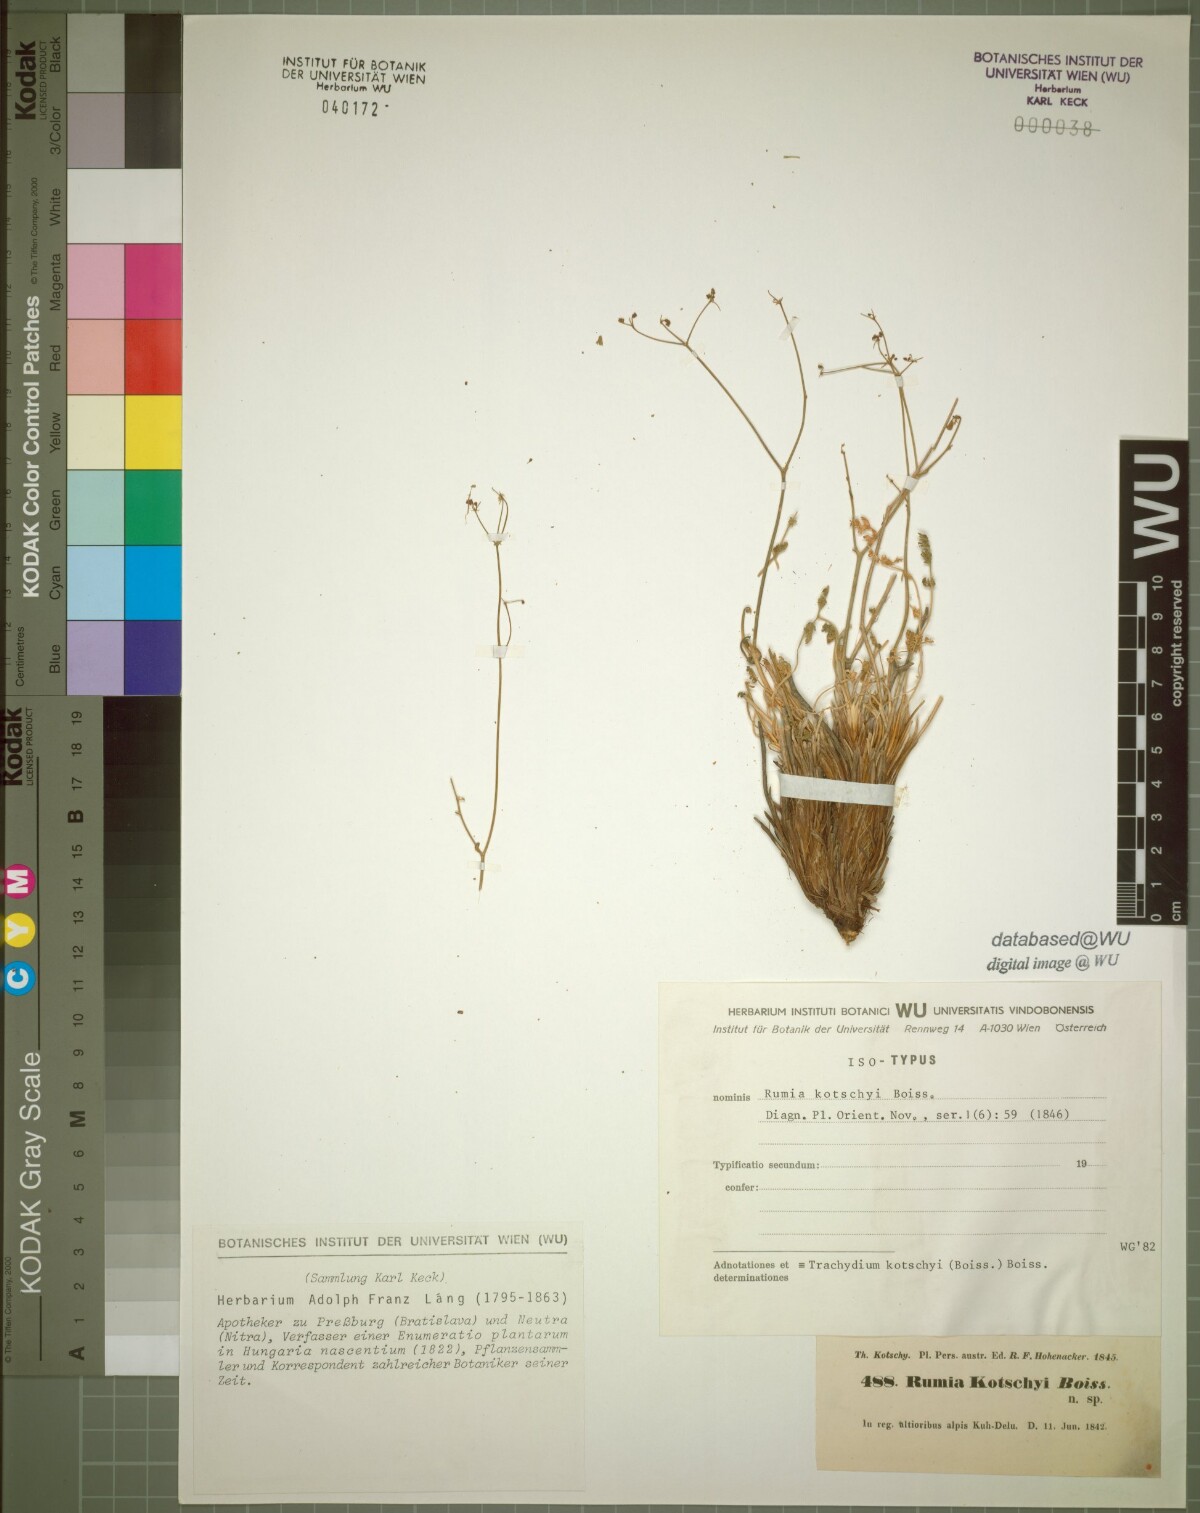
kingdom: Plantae
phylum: Tracheophyta
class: Magnoliopsida
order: Apiales
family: Apiaceae
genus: Pseudotrachydium
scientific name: Pseudotrachydium kotschyi
